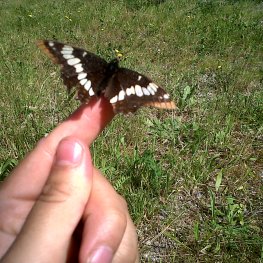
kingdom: Animalia
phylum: Arthropoda
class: Insecta
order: Lepidoptera
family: Nymphalidae
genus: Limenitis
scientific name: Limenitis lorquini
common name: Lorquin's Admiral
